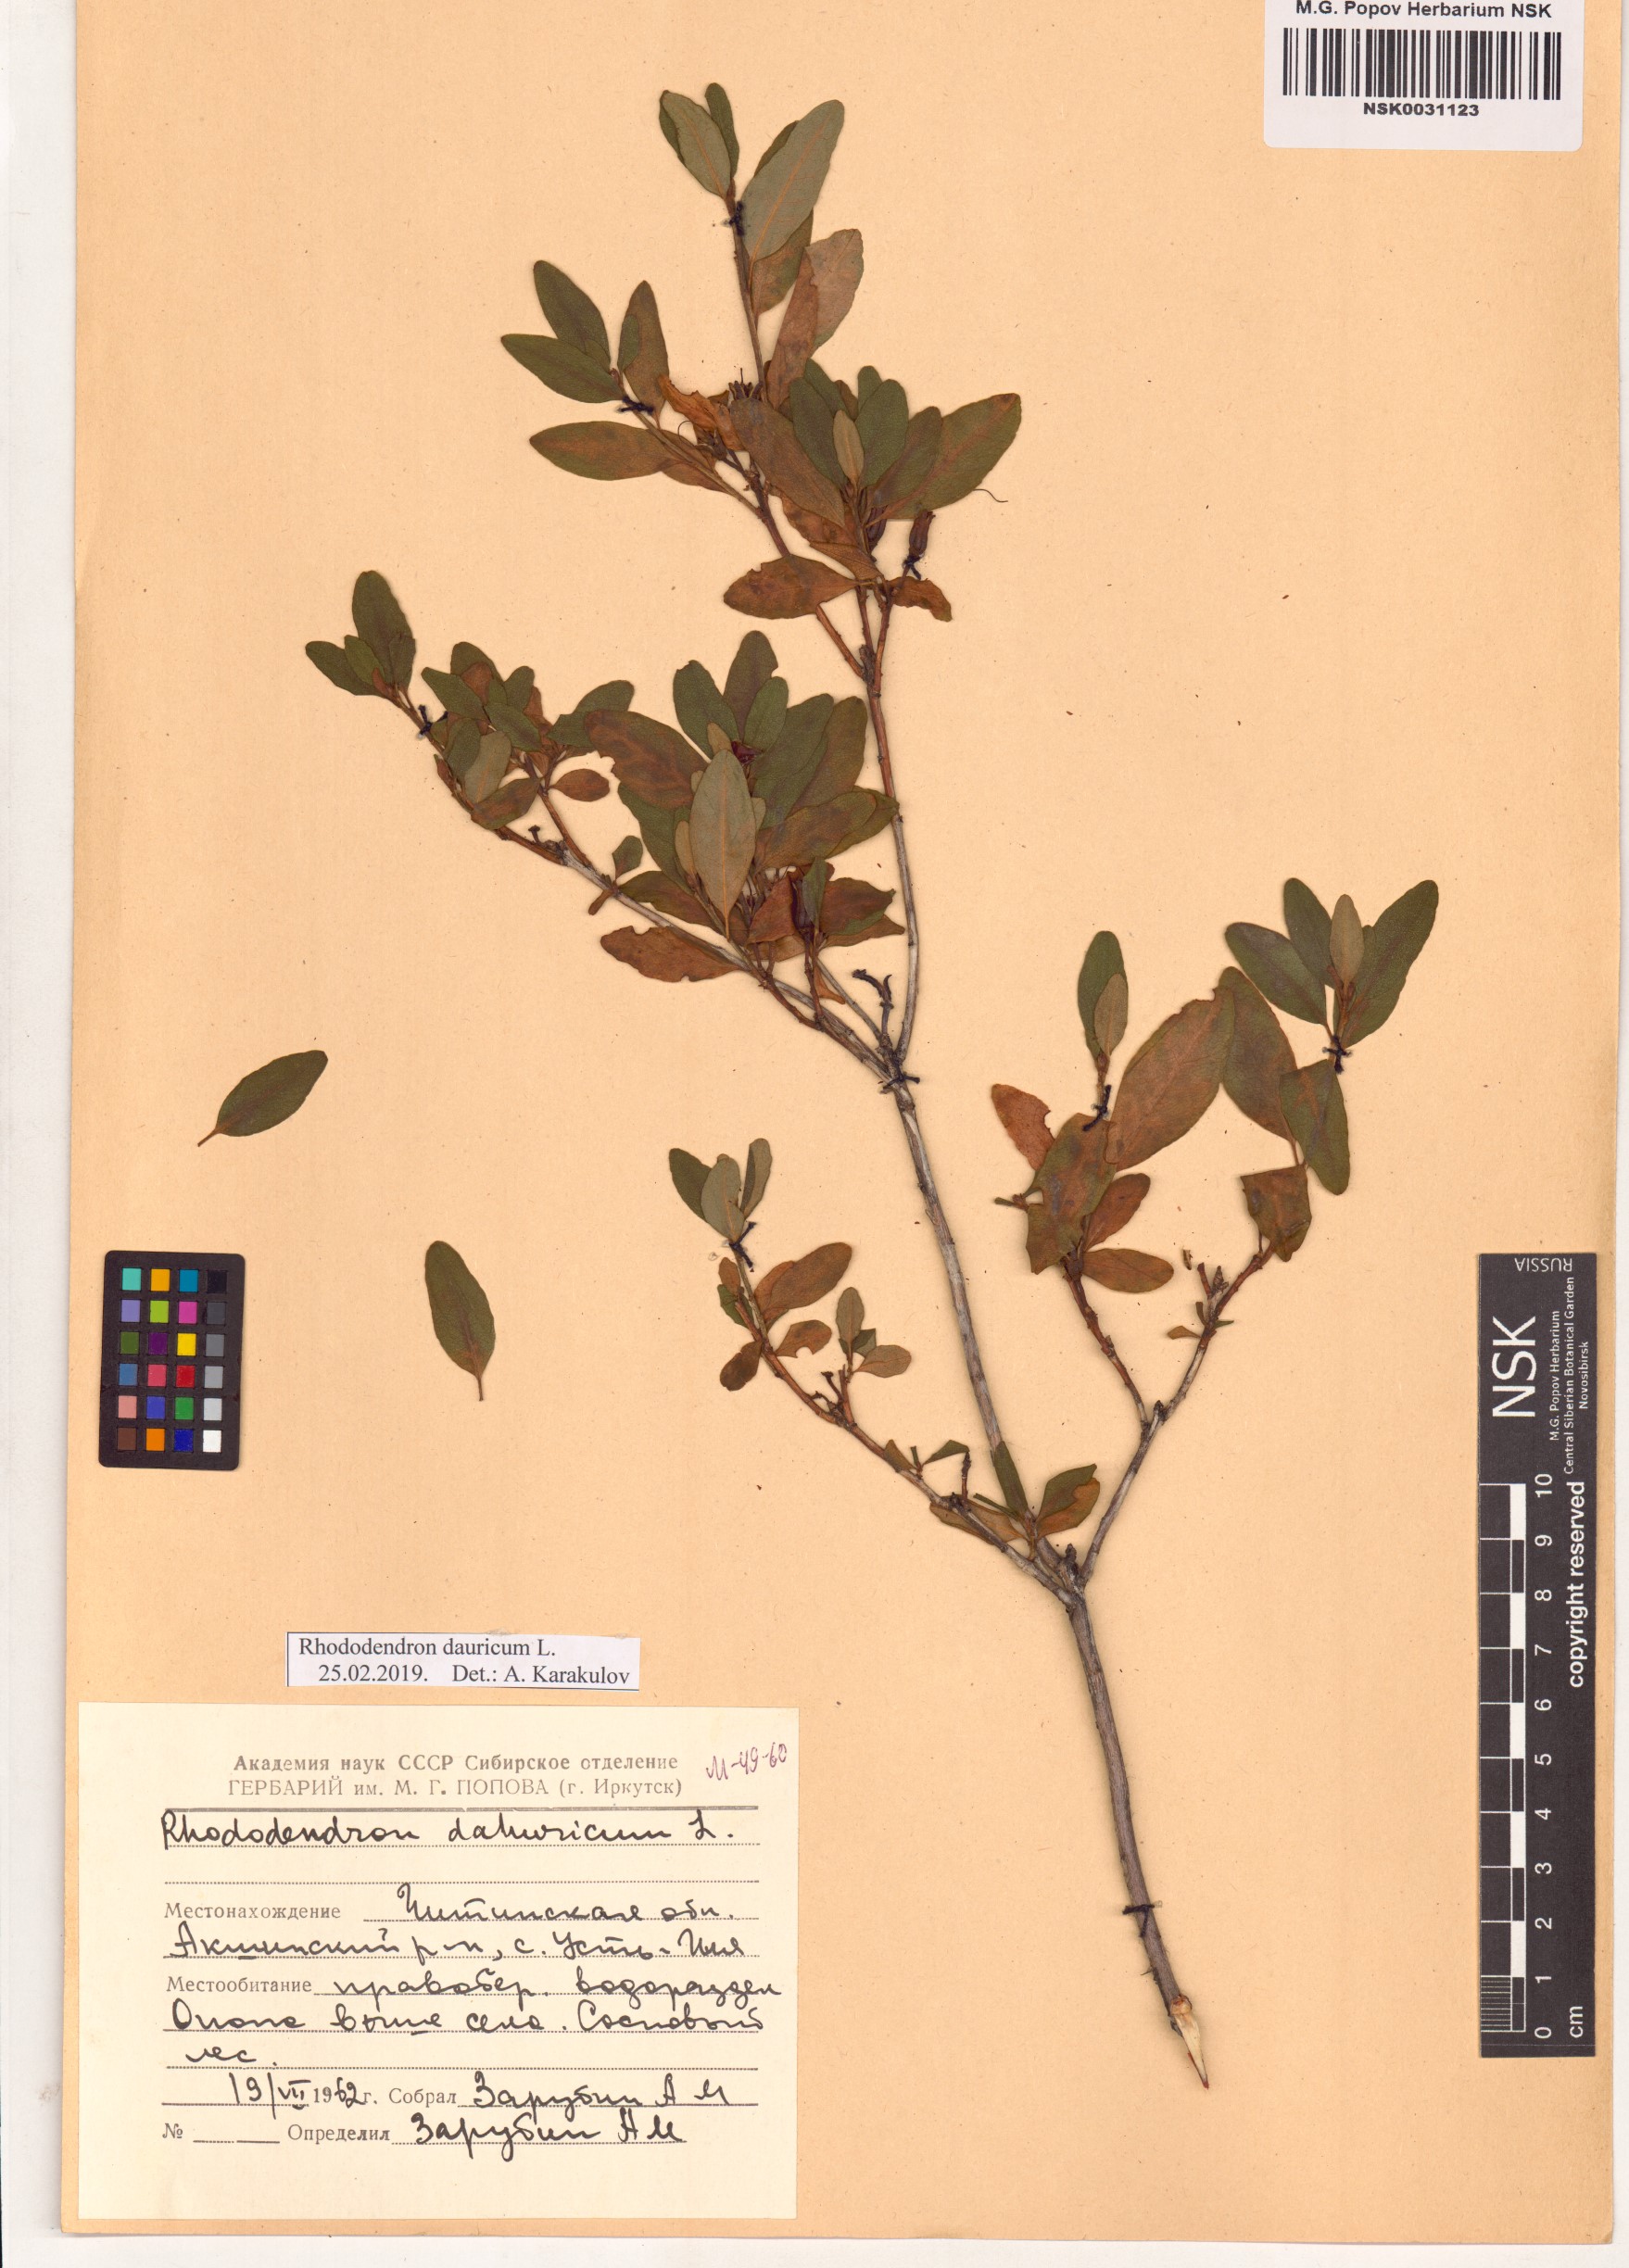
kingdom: Plantae
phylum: Tracheophyta
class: Magnoliopsida
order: Ericales
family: Ericaceae
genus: Rhododendron
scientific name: Rhododendron dauricum
